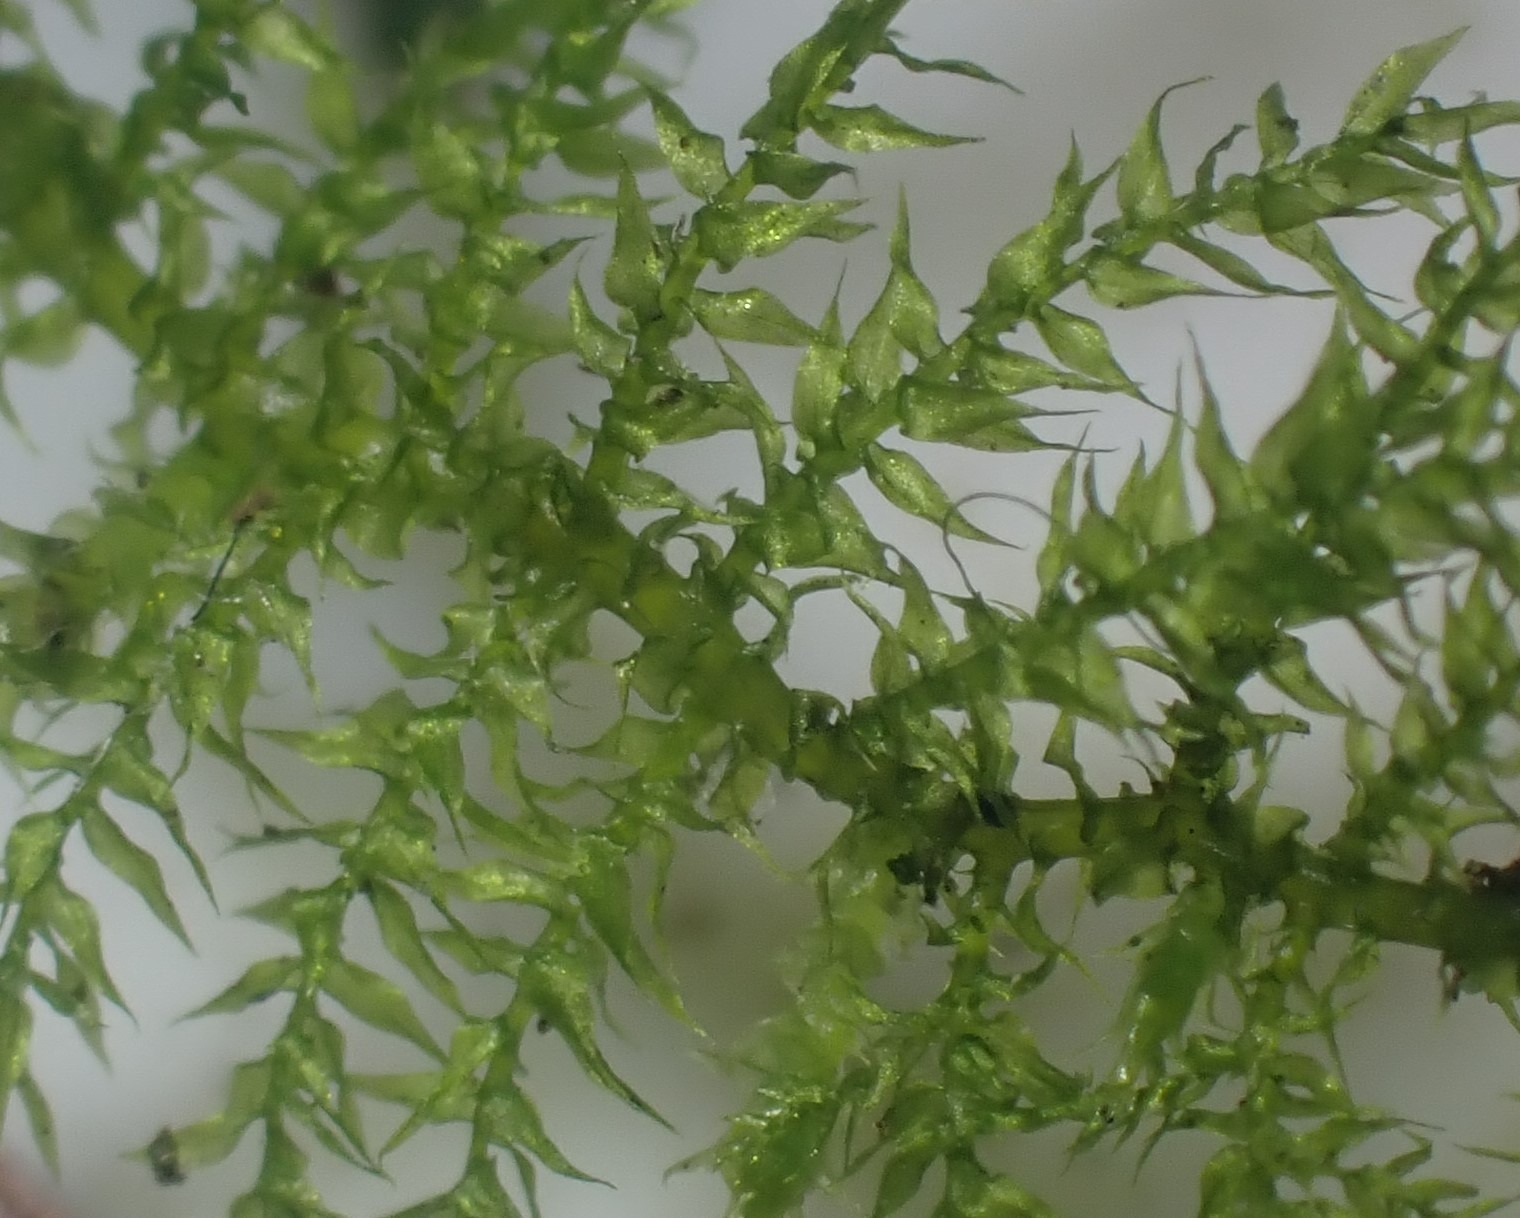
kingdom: Plantae
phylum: Bryophyta
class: Bryopsida
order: Hypnales
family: Brachytheciaceae
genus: Kindbergia
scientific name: Kindbergia praelonga
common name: Forskelligbladet vortetand
